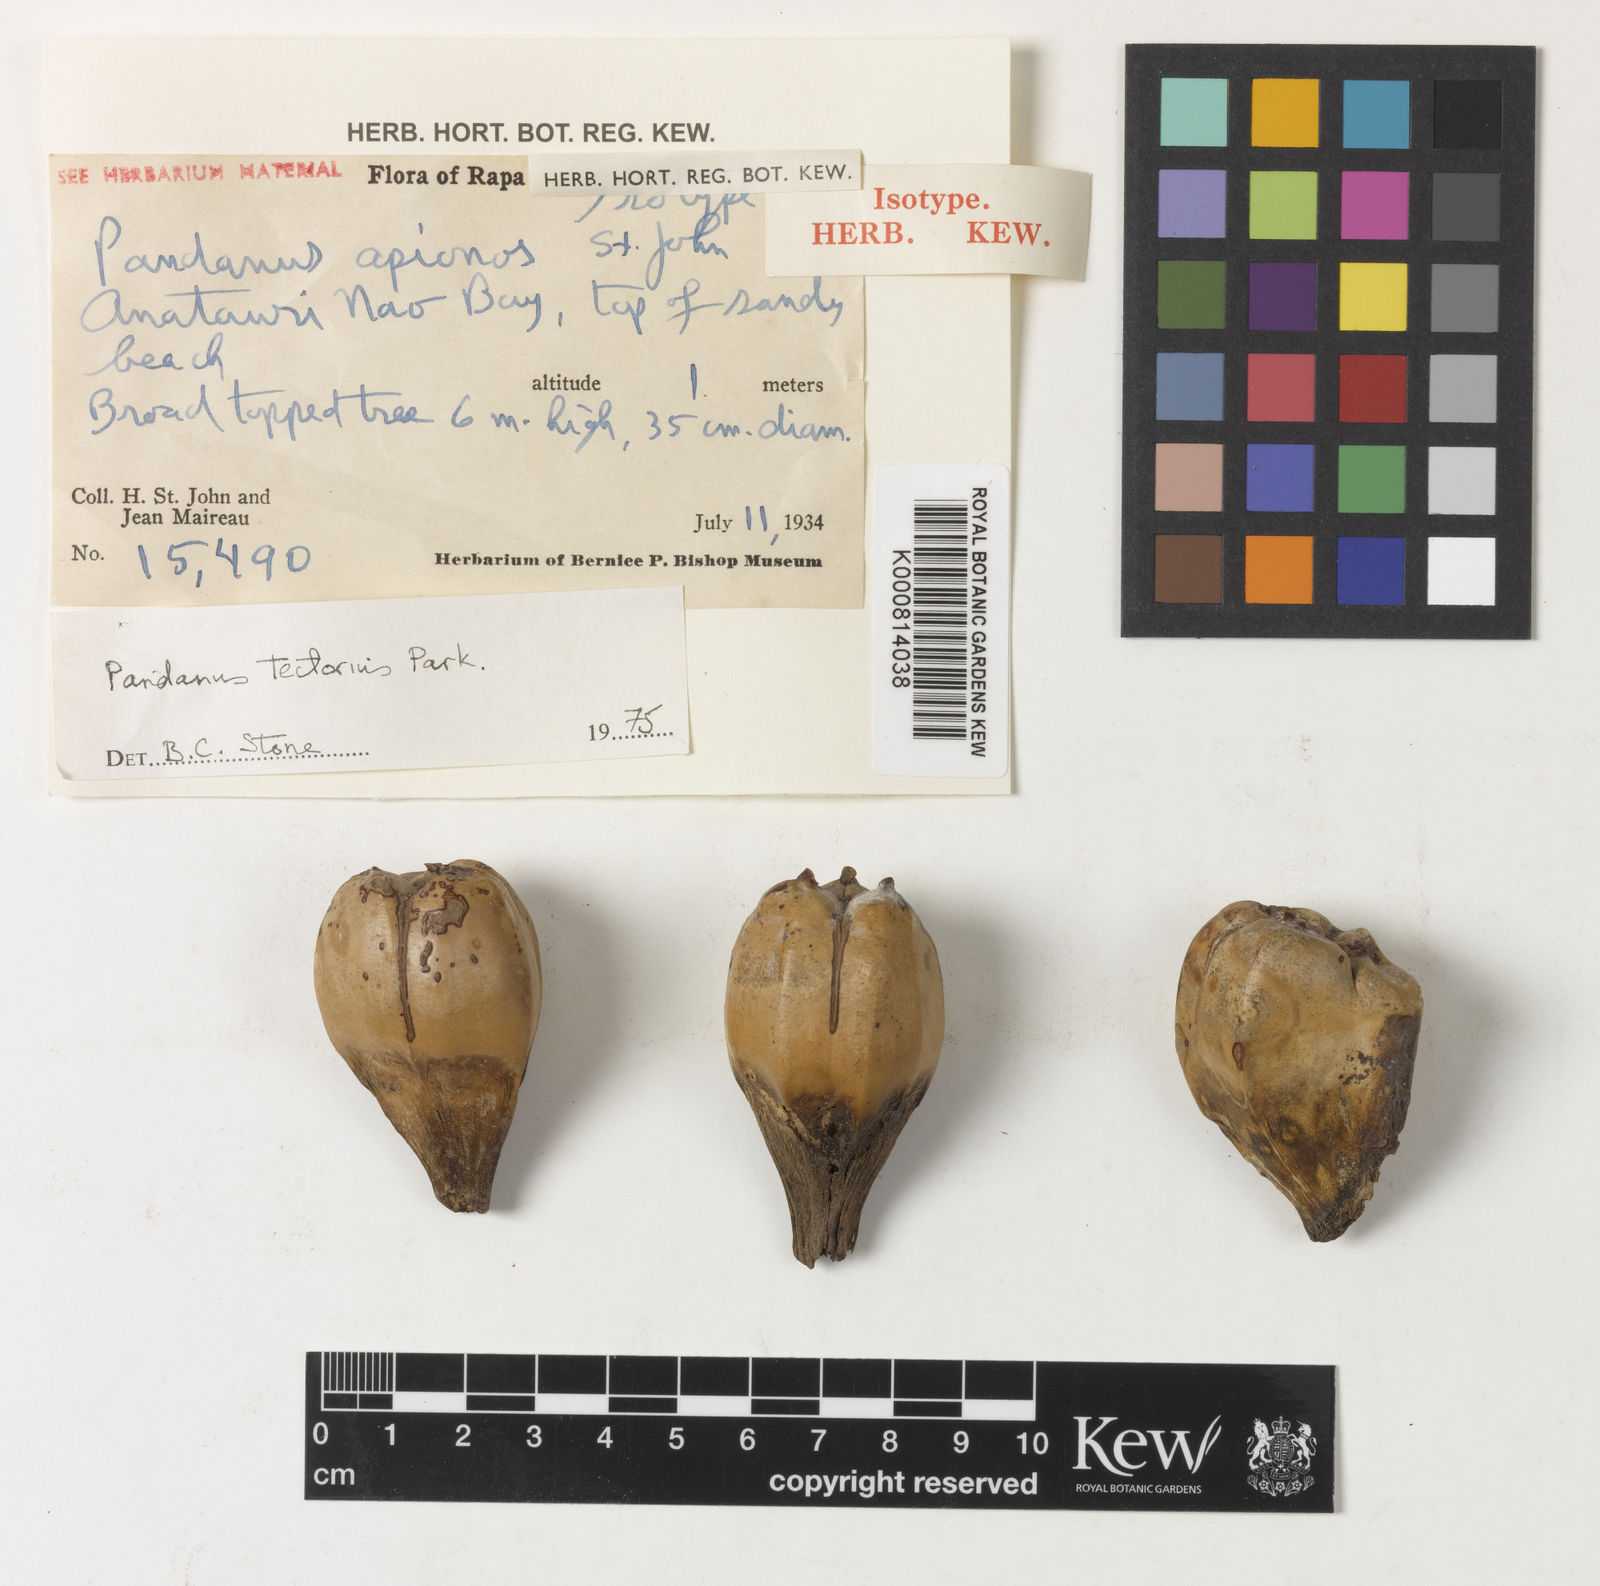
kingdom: Plantae
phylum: Tracheophyta
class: Liliopsida
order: Pandanales
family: Pandanaceae
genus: Pandanus
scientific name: Pandanus
